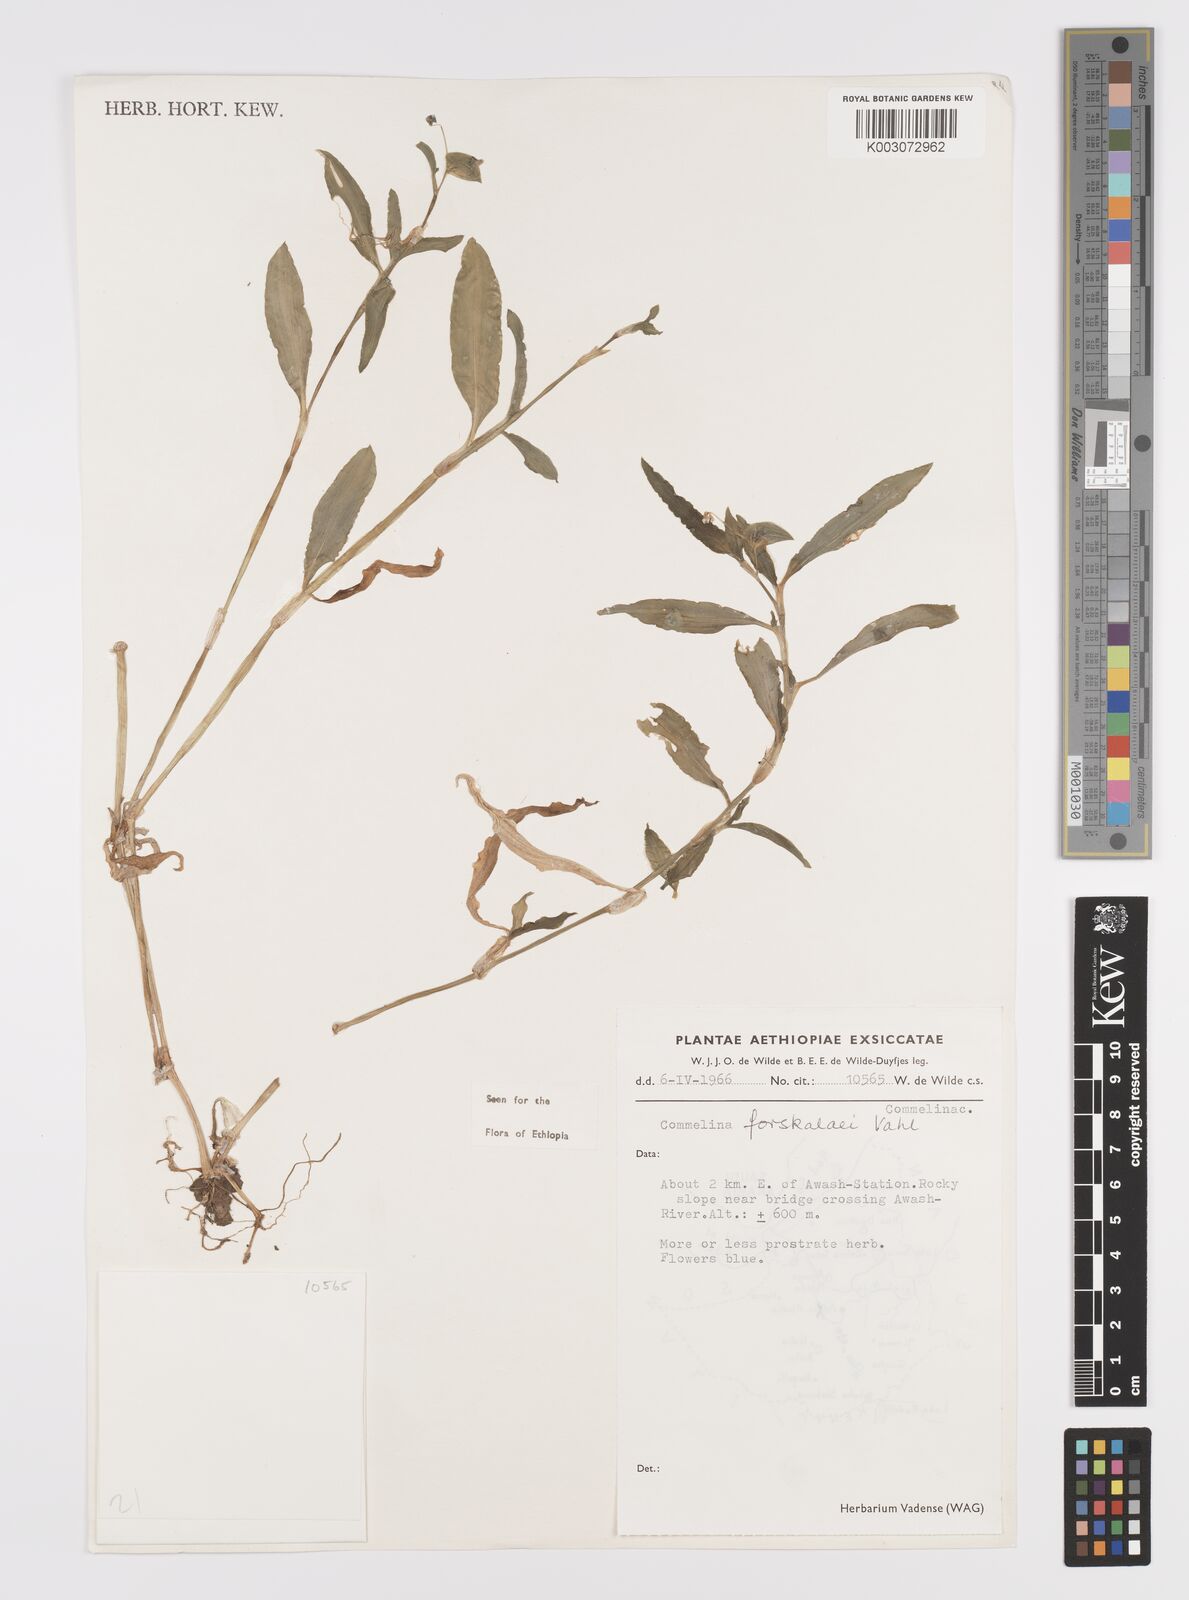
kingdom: Plantae
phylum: Tracheophyta
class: Liliopsida
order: Commelinales
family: Commelinaceae
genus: Commelina
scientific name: Commelina forskaolii
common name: Rat's ear
